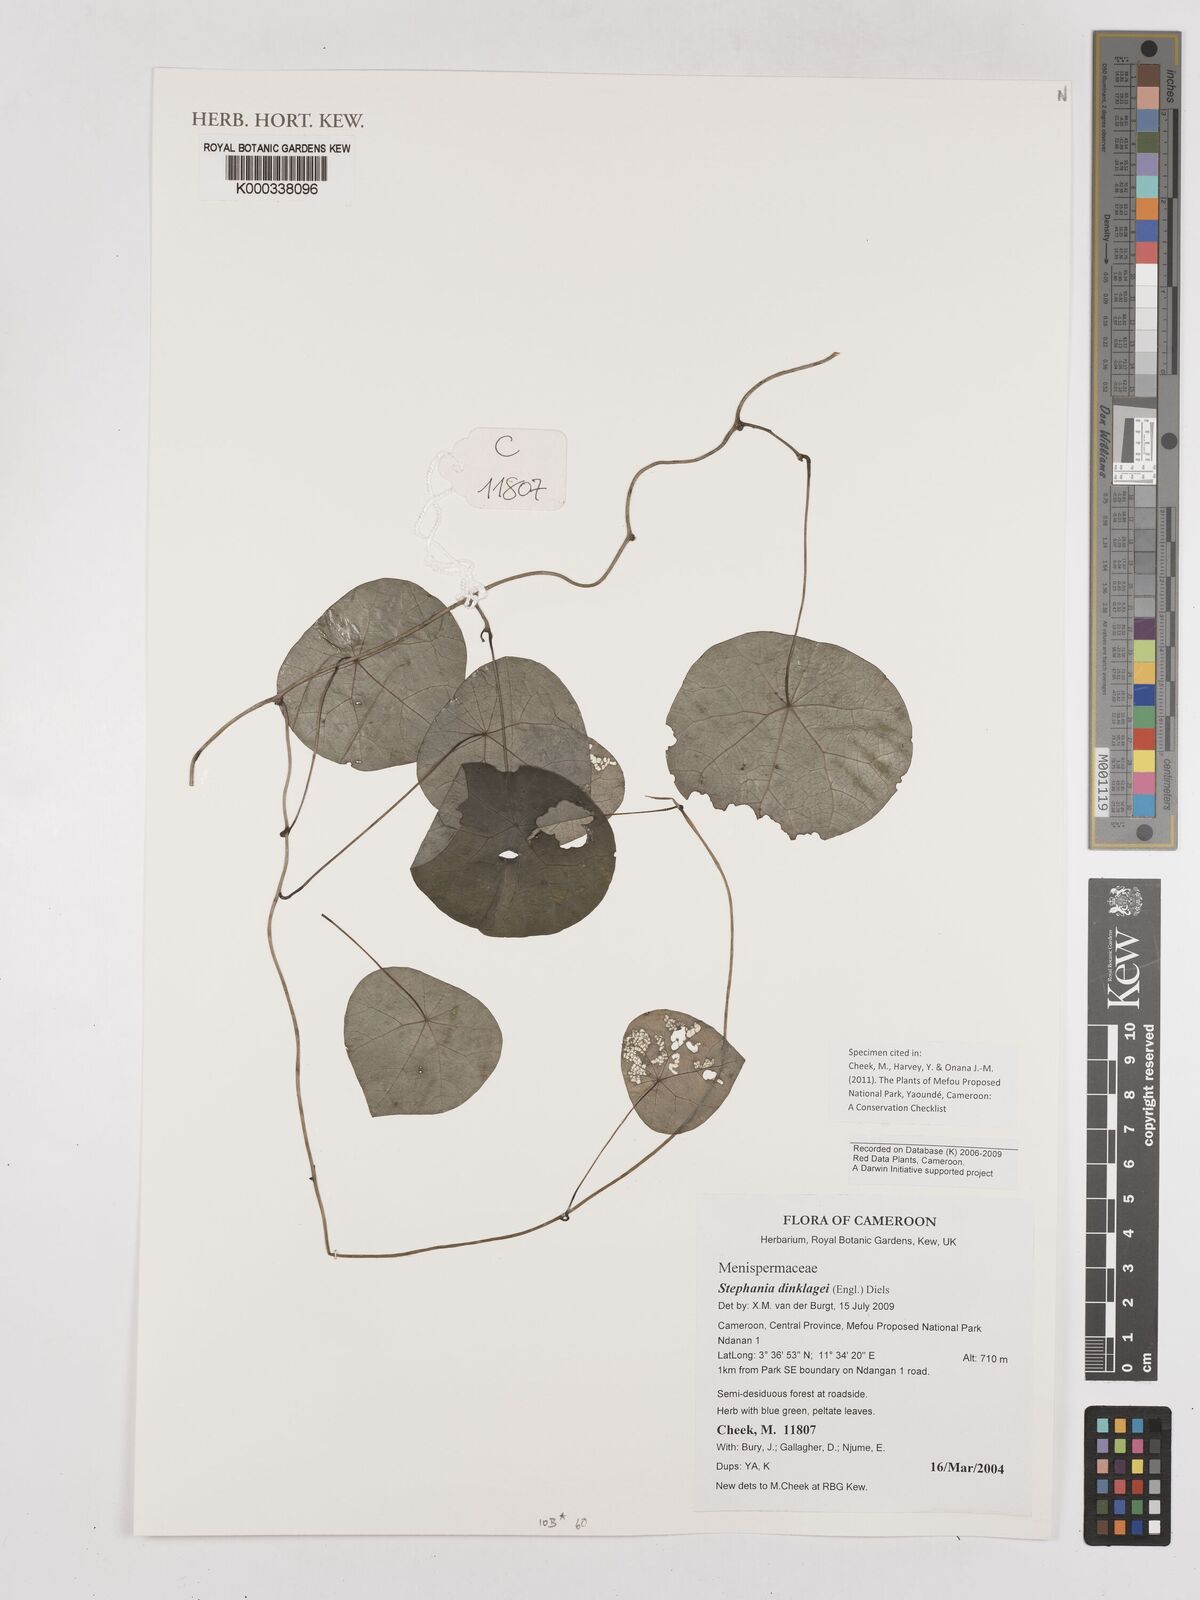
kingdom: Plantae
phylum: Tracheophyta
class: Magnoliopsida
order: Ranunculales
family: Menispermaceae
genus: Stephania
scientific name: Stephania dinklagei
